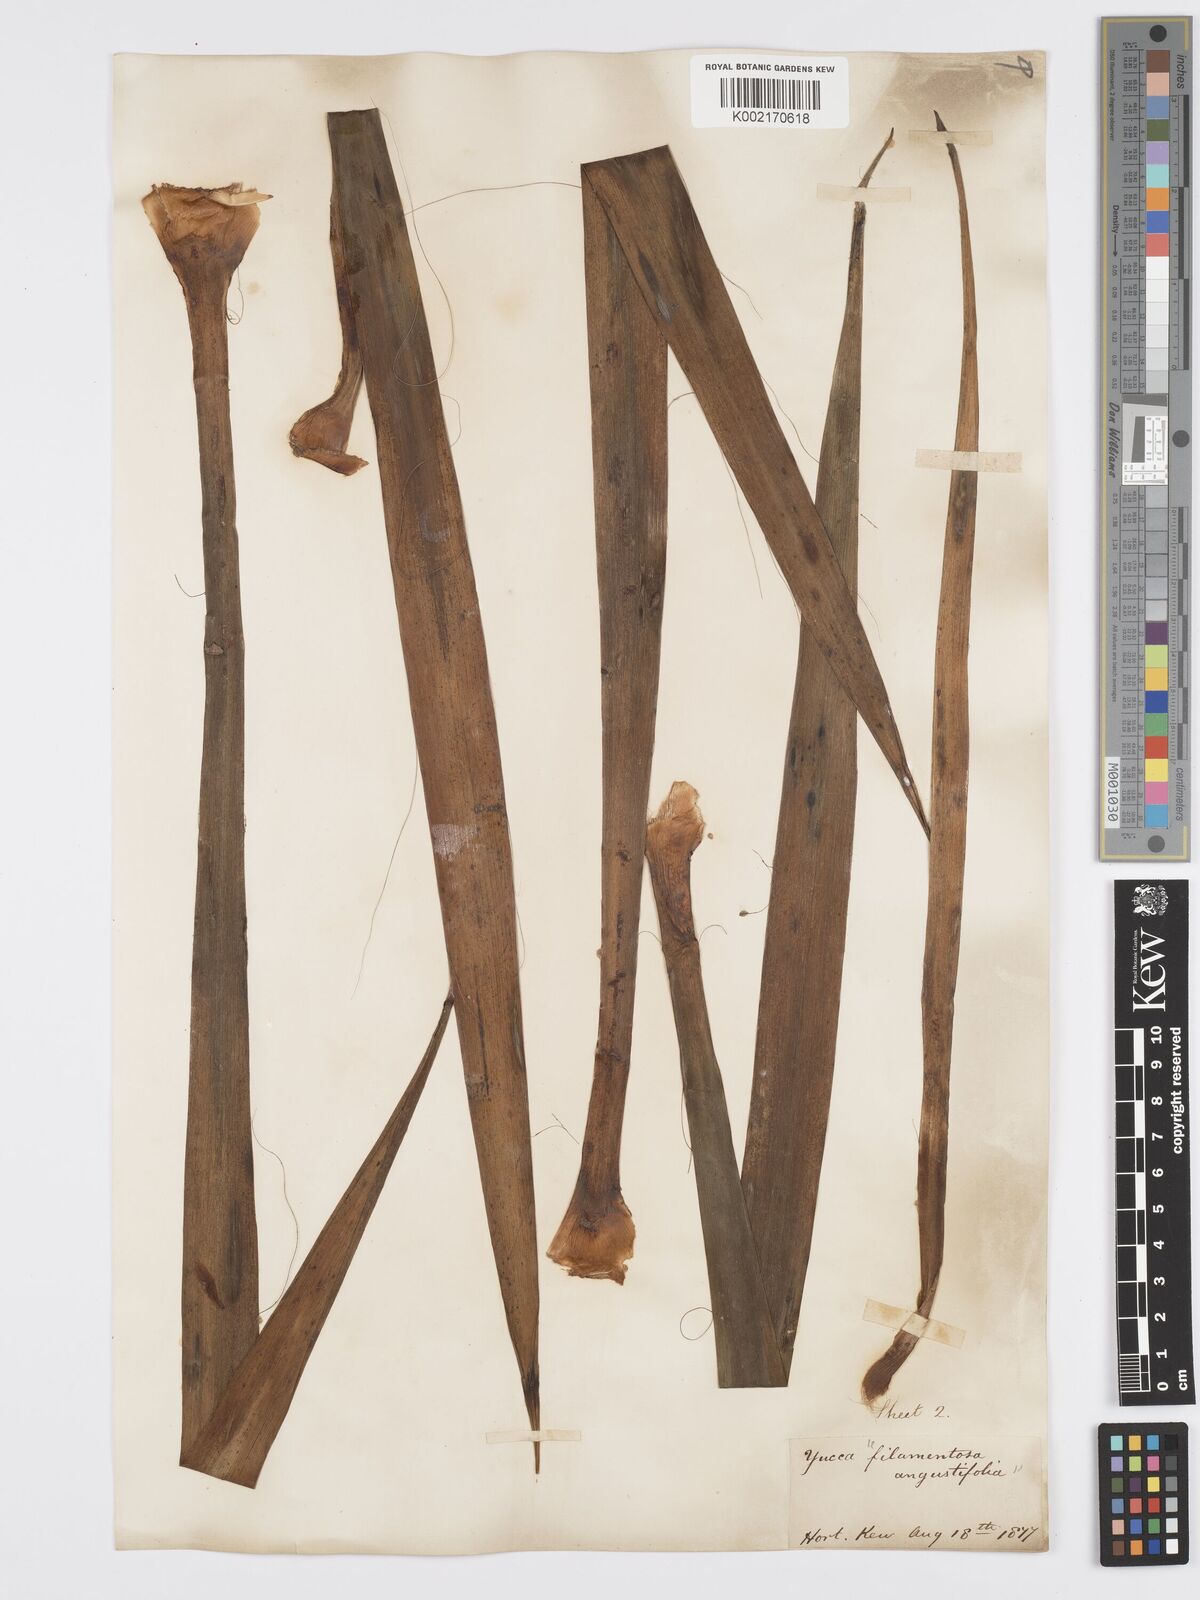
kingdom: Plantae
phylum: Tracheophyta
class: Liliopsida
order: Asparagales
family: Asparagaceae
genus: Yucca
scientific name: Yucca filamentosa
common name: Adam's-needle
